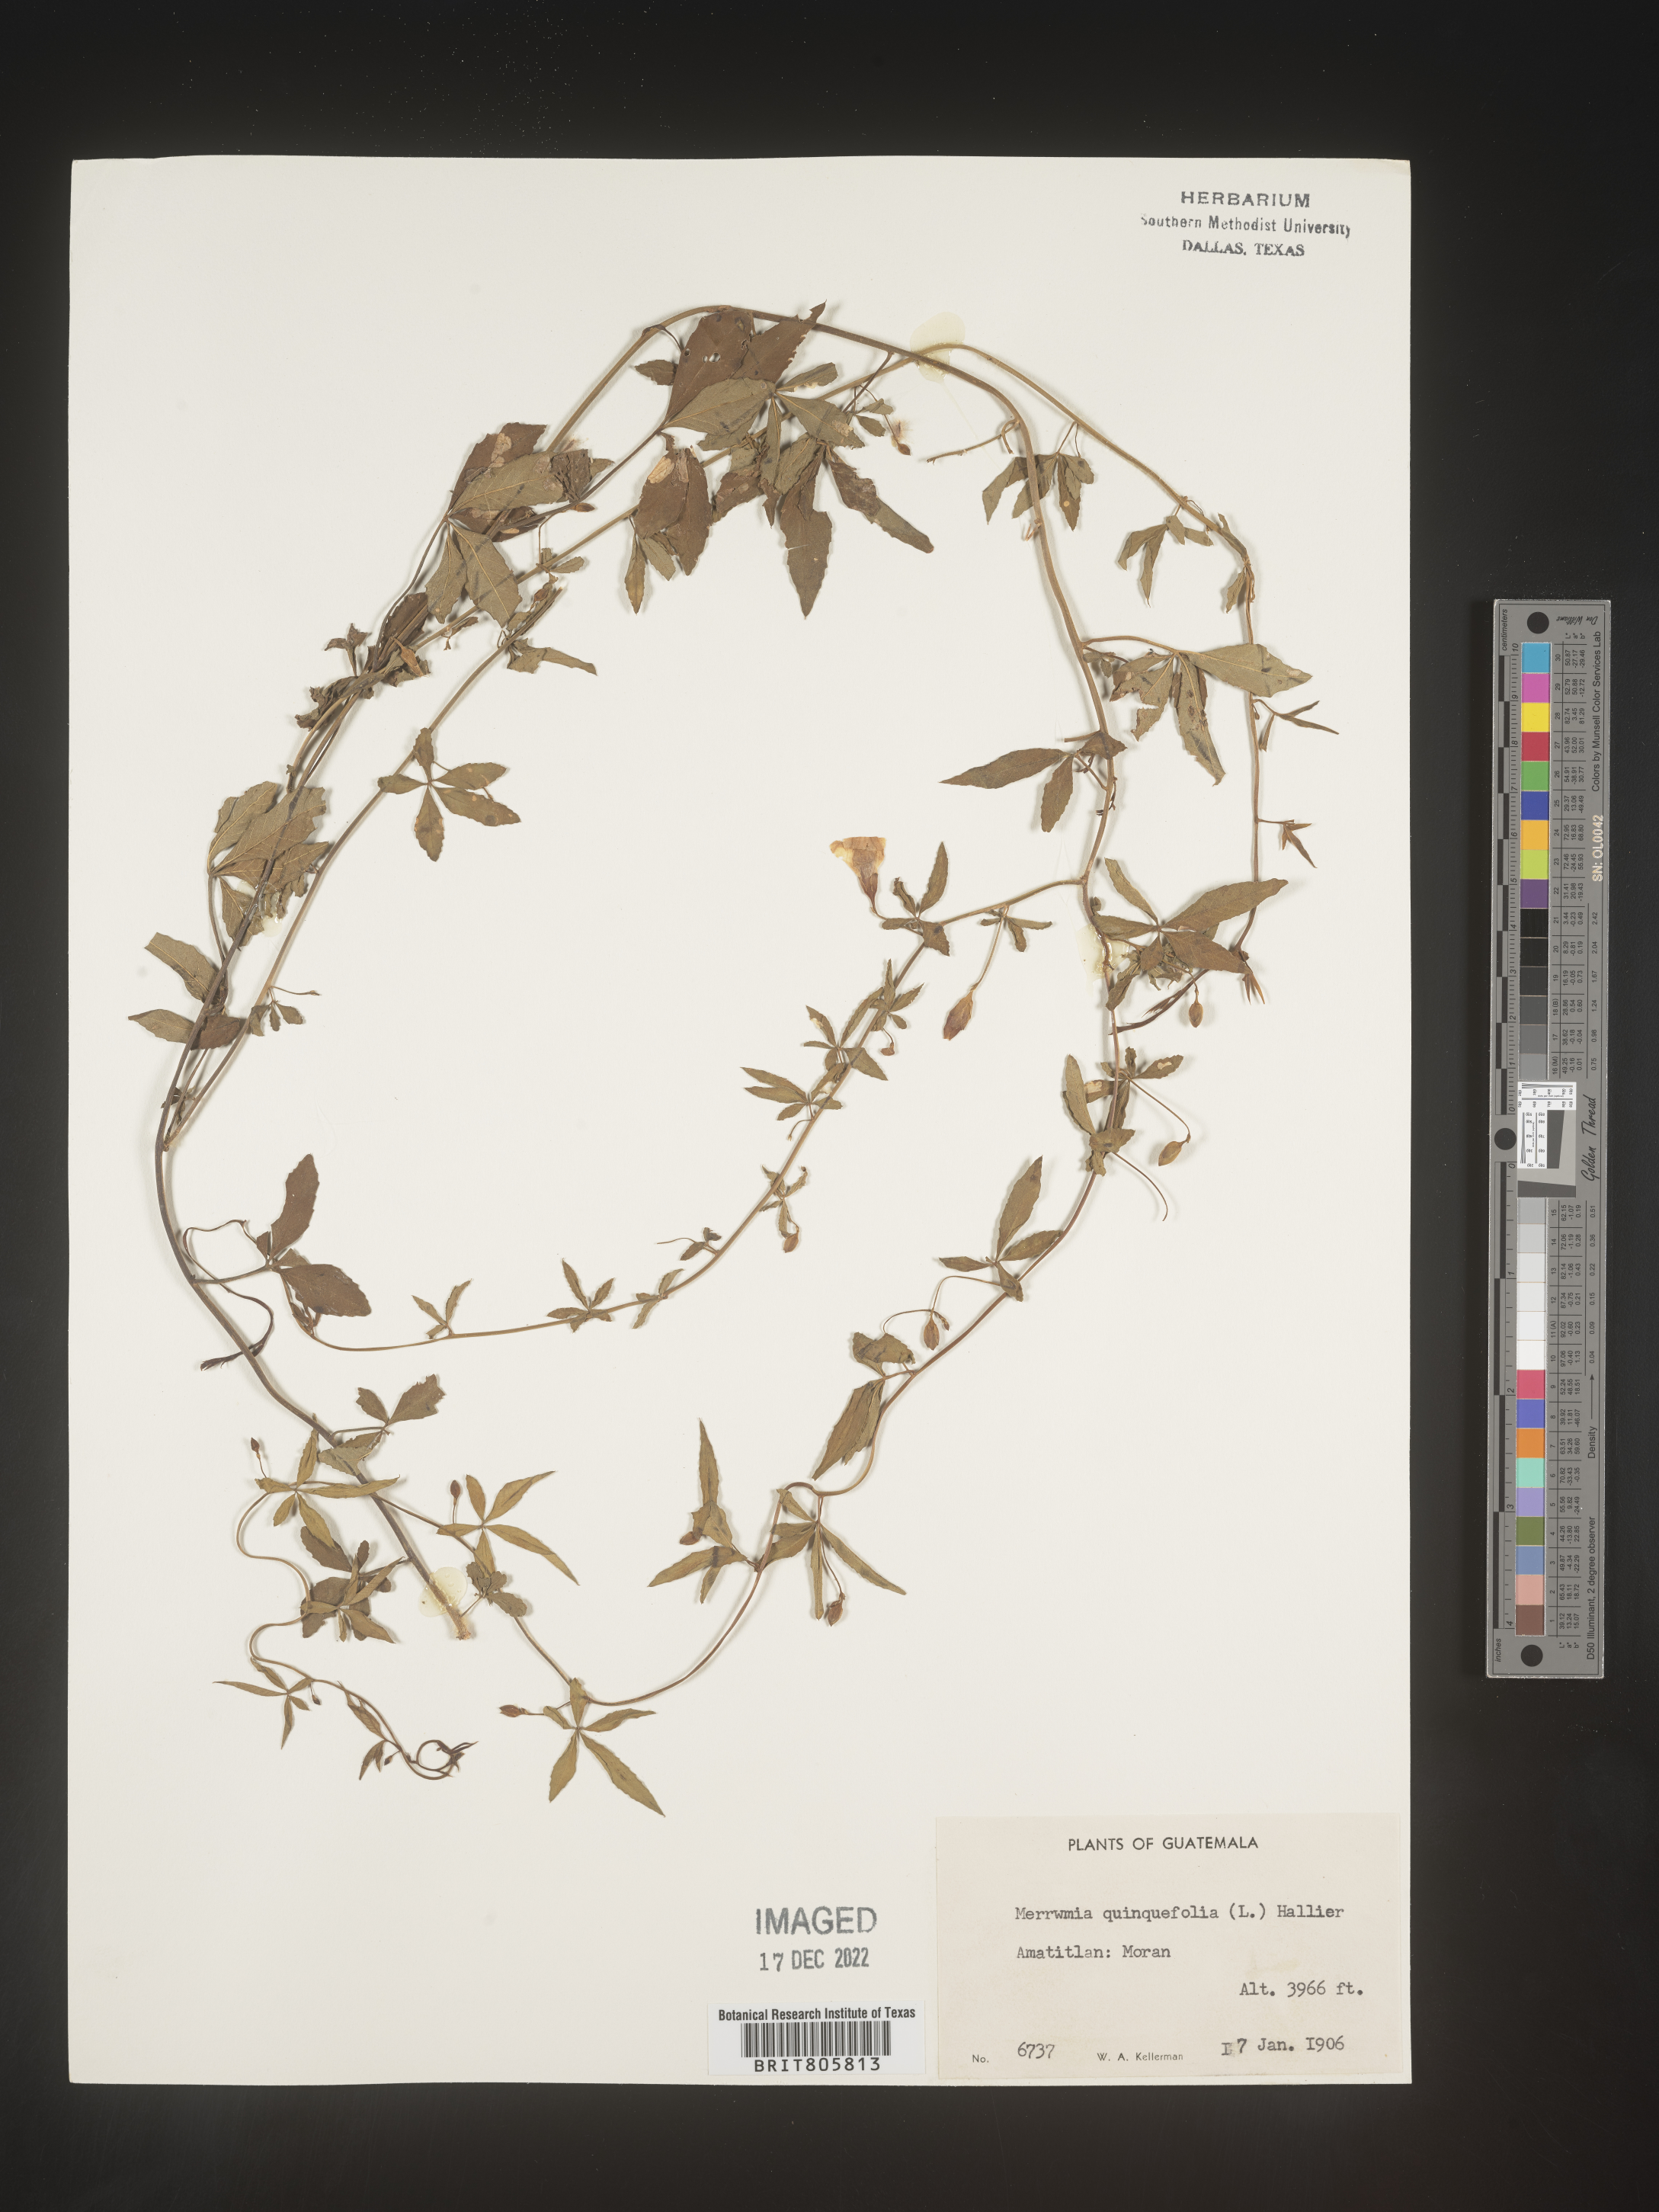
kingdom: Plantae
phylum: Tracheophyta
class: Magnoliopsida
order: Solanales
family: Convolvulaceae
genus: Merremia
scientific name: Merremia
